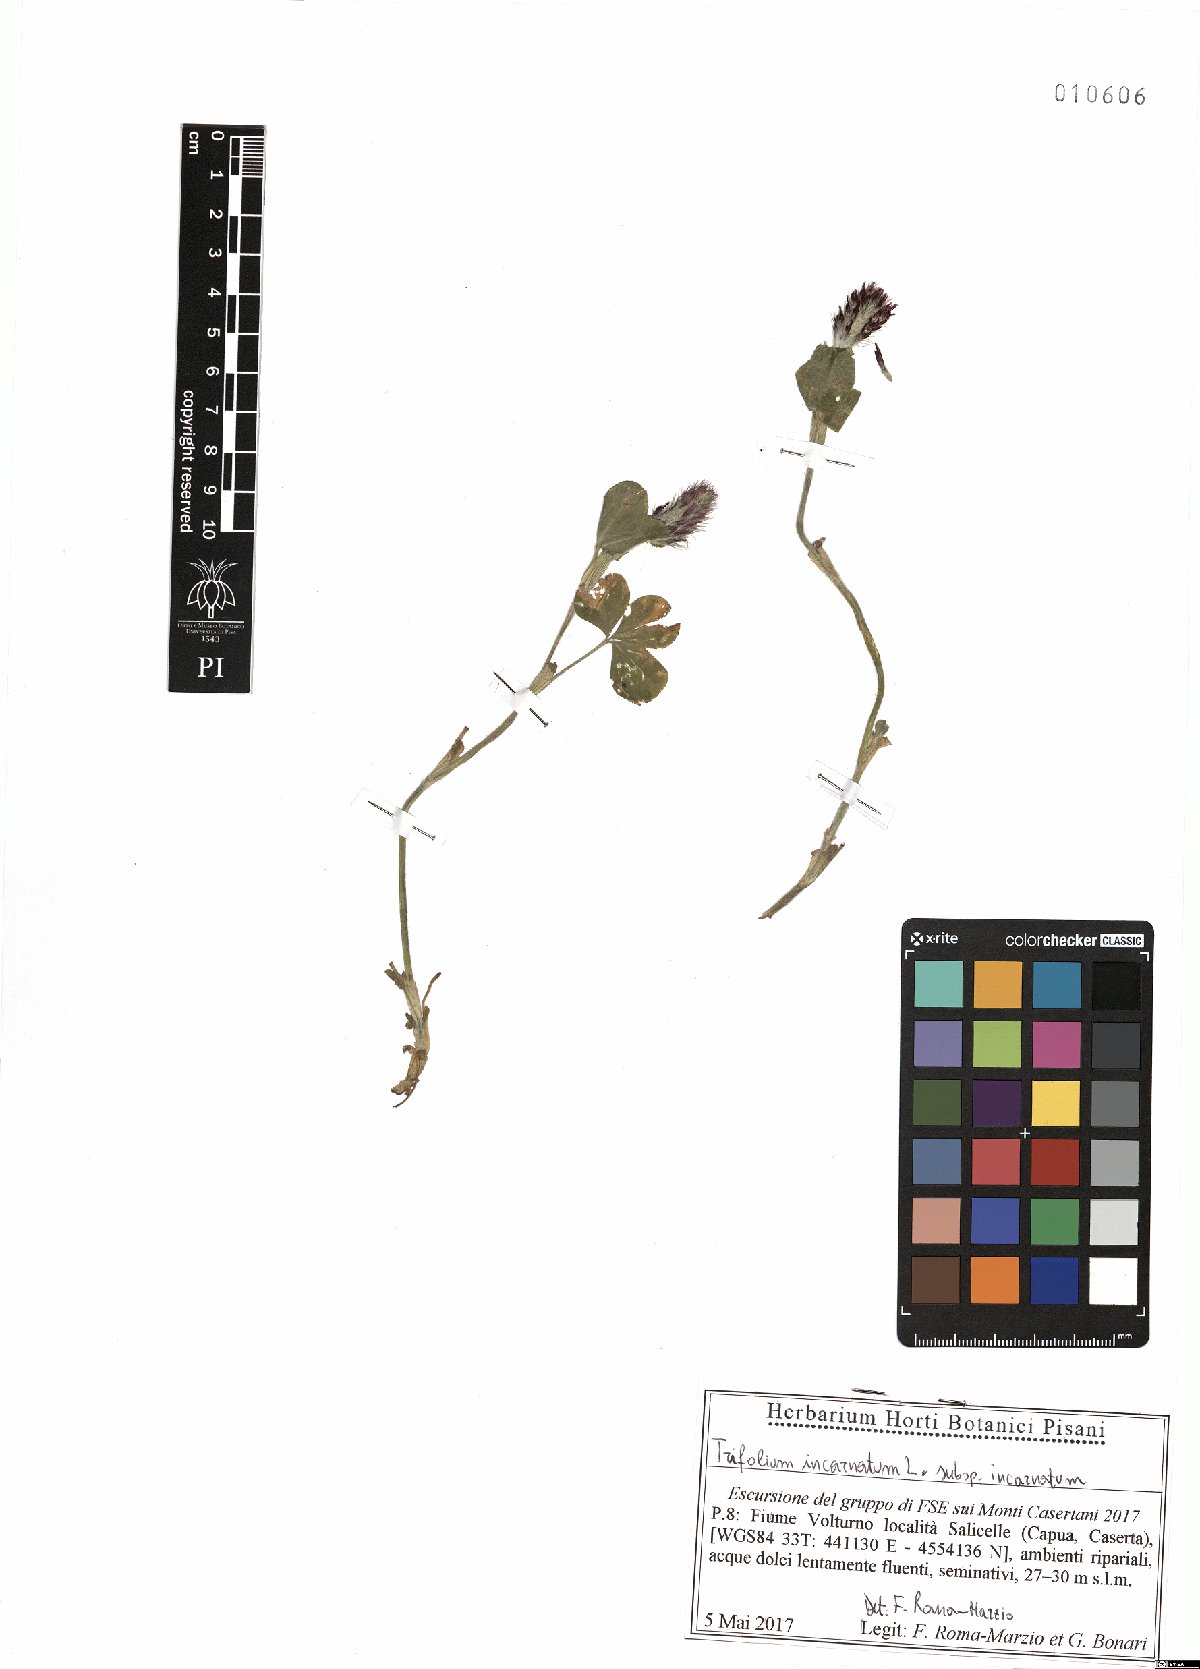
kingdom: Plantae
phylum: Tracheophyta
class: Magnoliopsida
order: Fabales
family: Fabaceae
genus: Trifolium
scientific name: Trifolium incarnatum
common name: Crimson clover
